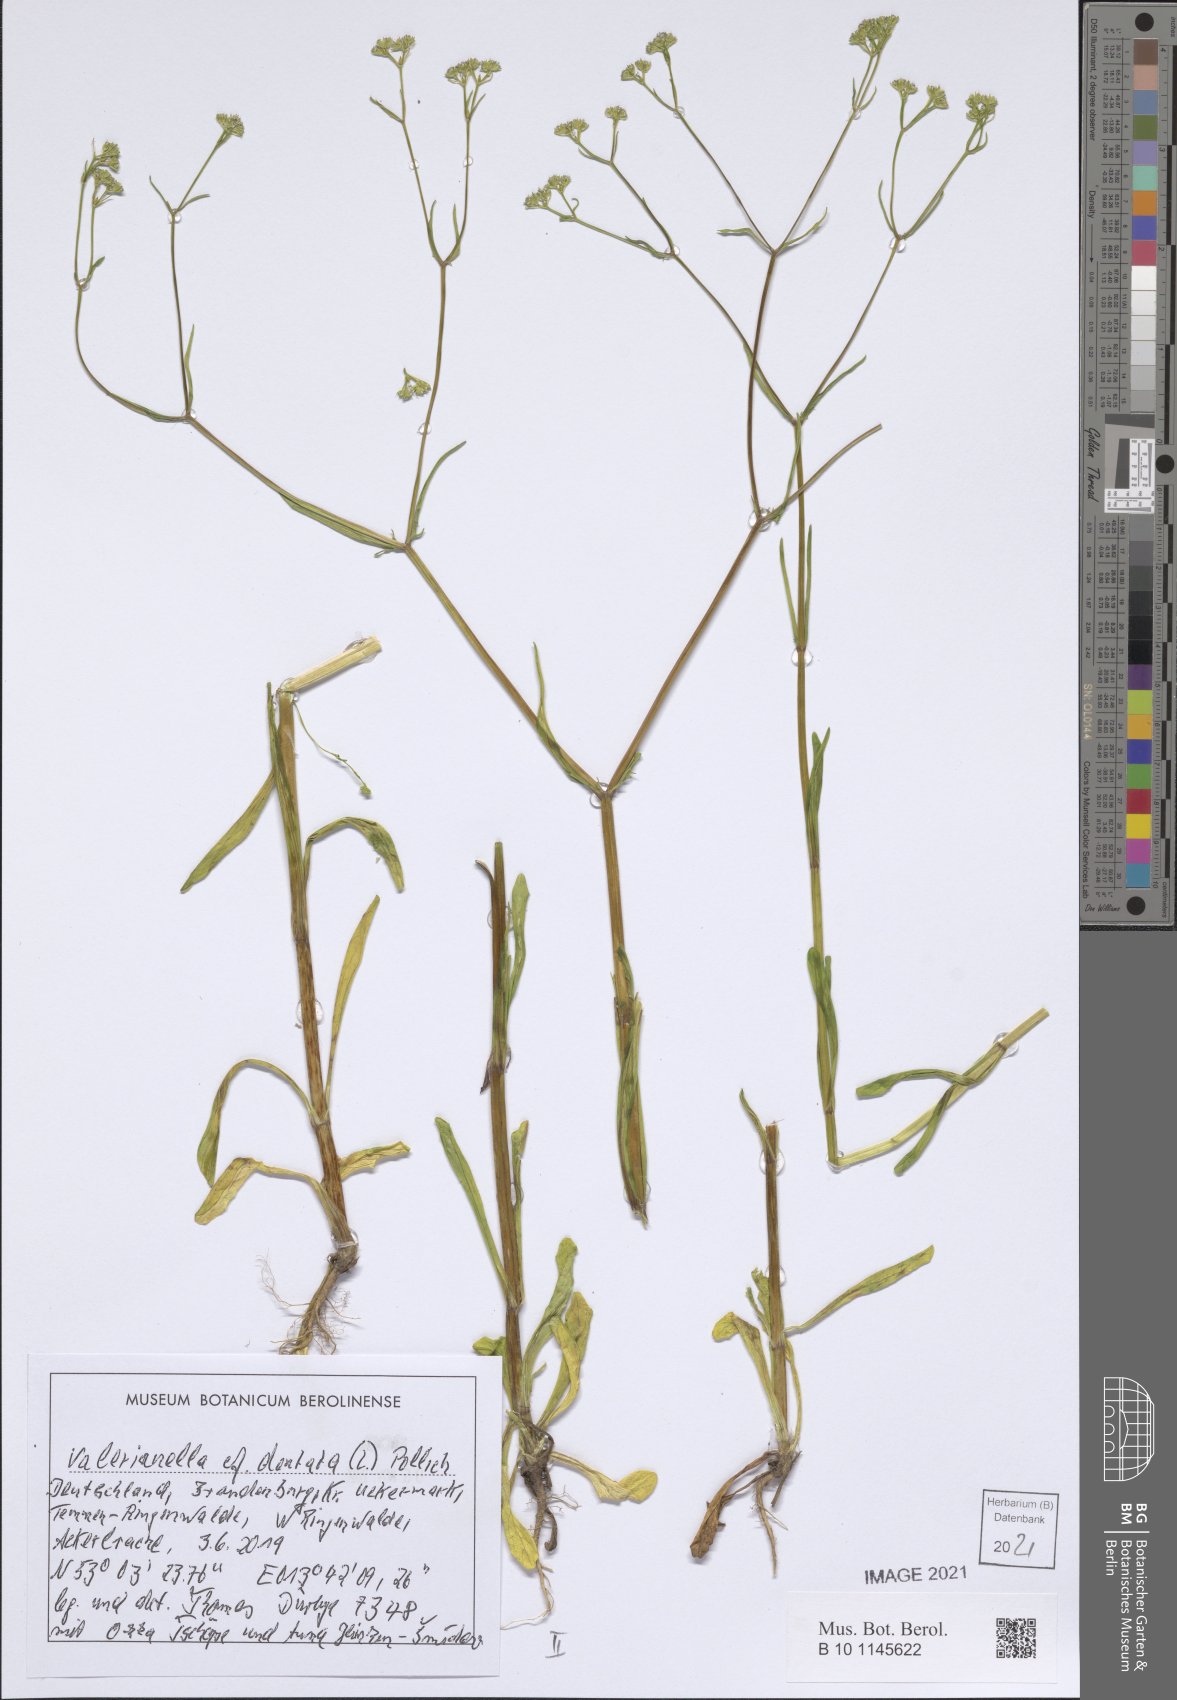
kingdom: Plantae
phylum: Tracheophyta
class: Magnoliopsida
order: Dipsacales
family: Caprifoliaceae
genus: Valerianella
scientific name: Valerianella dentata
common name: Narrow-fruited cornsalad
